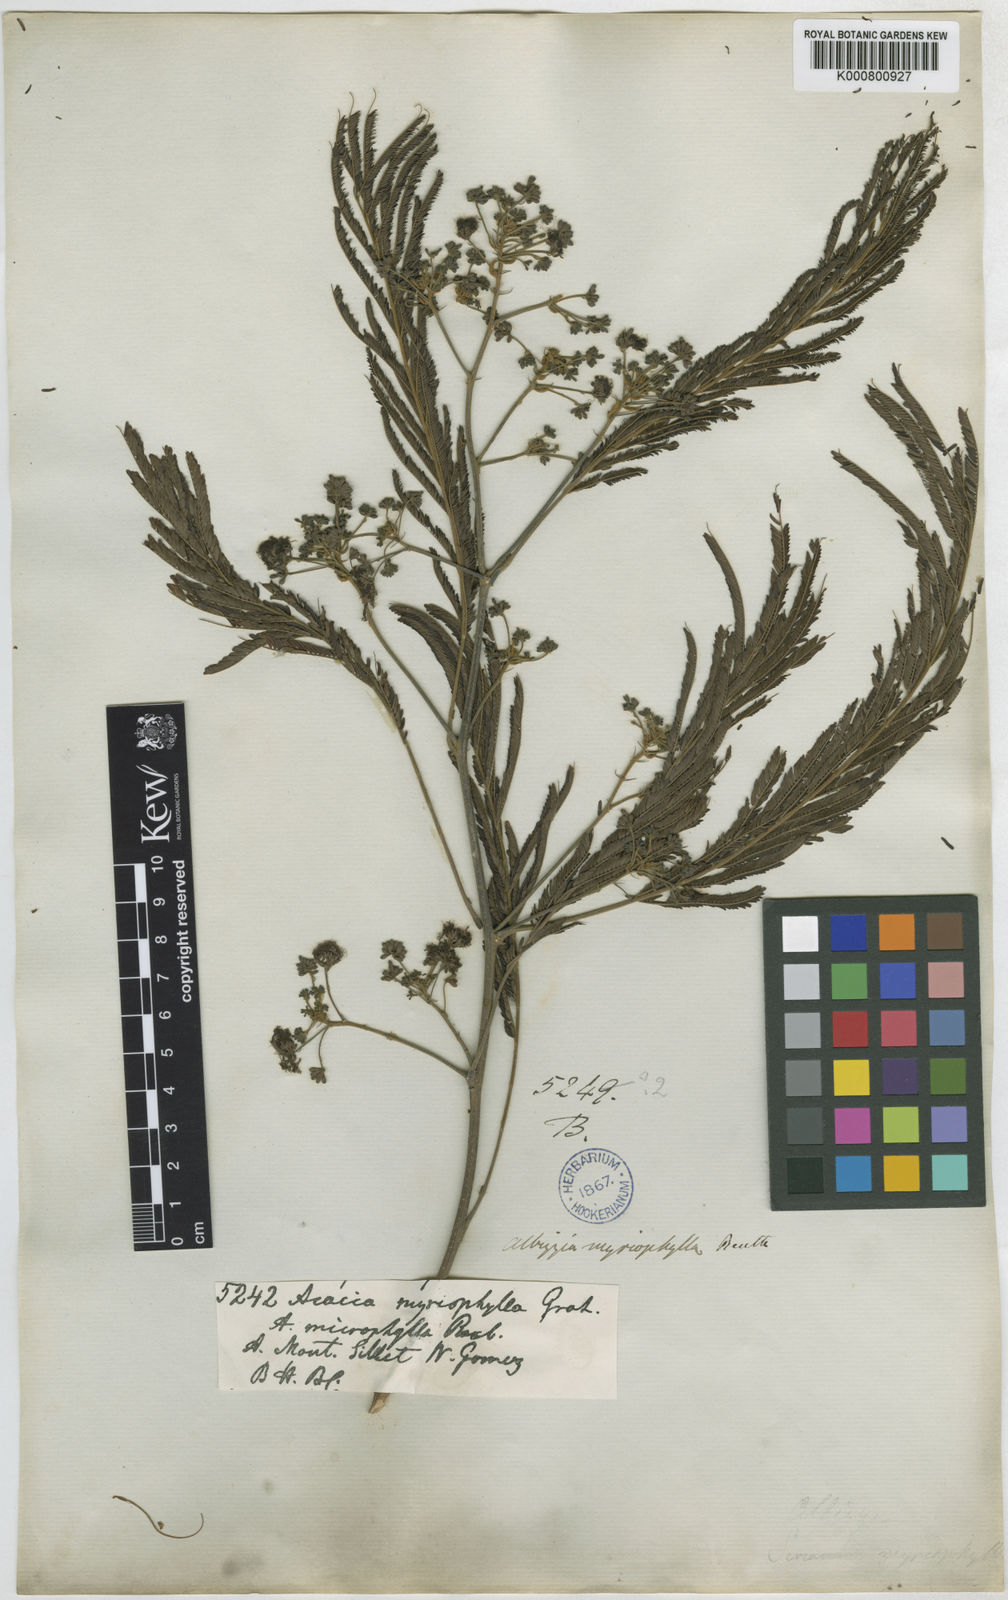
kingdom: Plantae
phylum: Tracheophyta
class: Magnoliopsida
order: Fabales
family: Fabaceae
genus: Albizia
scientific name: Albizia myriophylla
